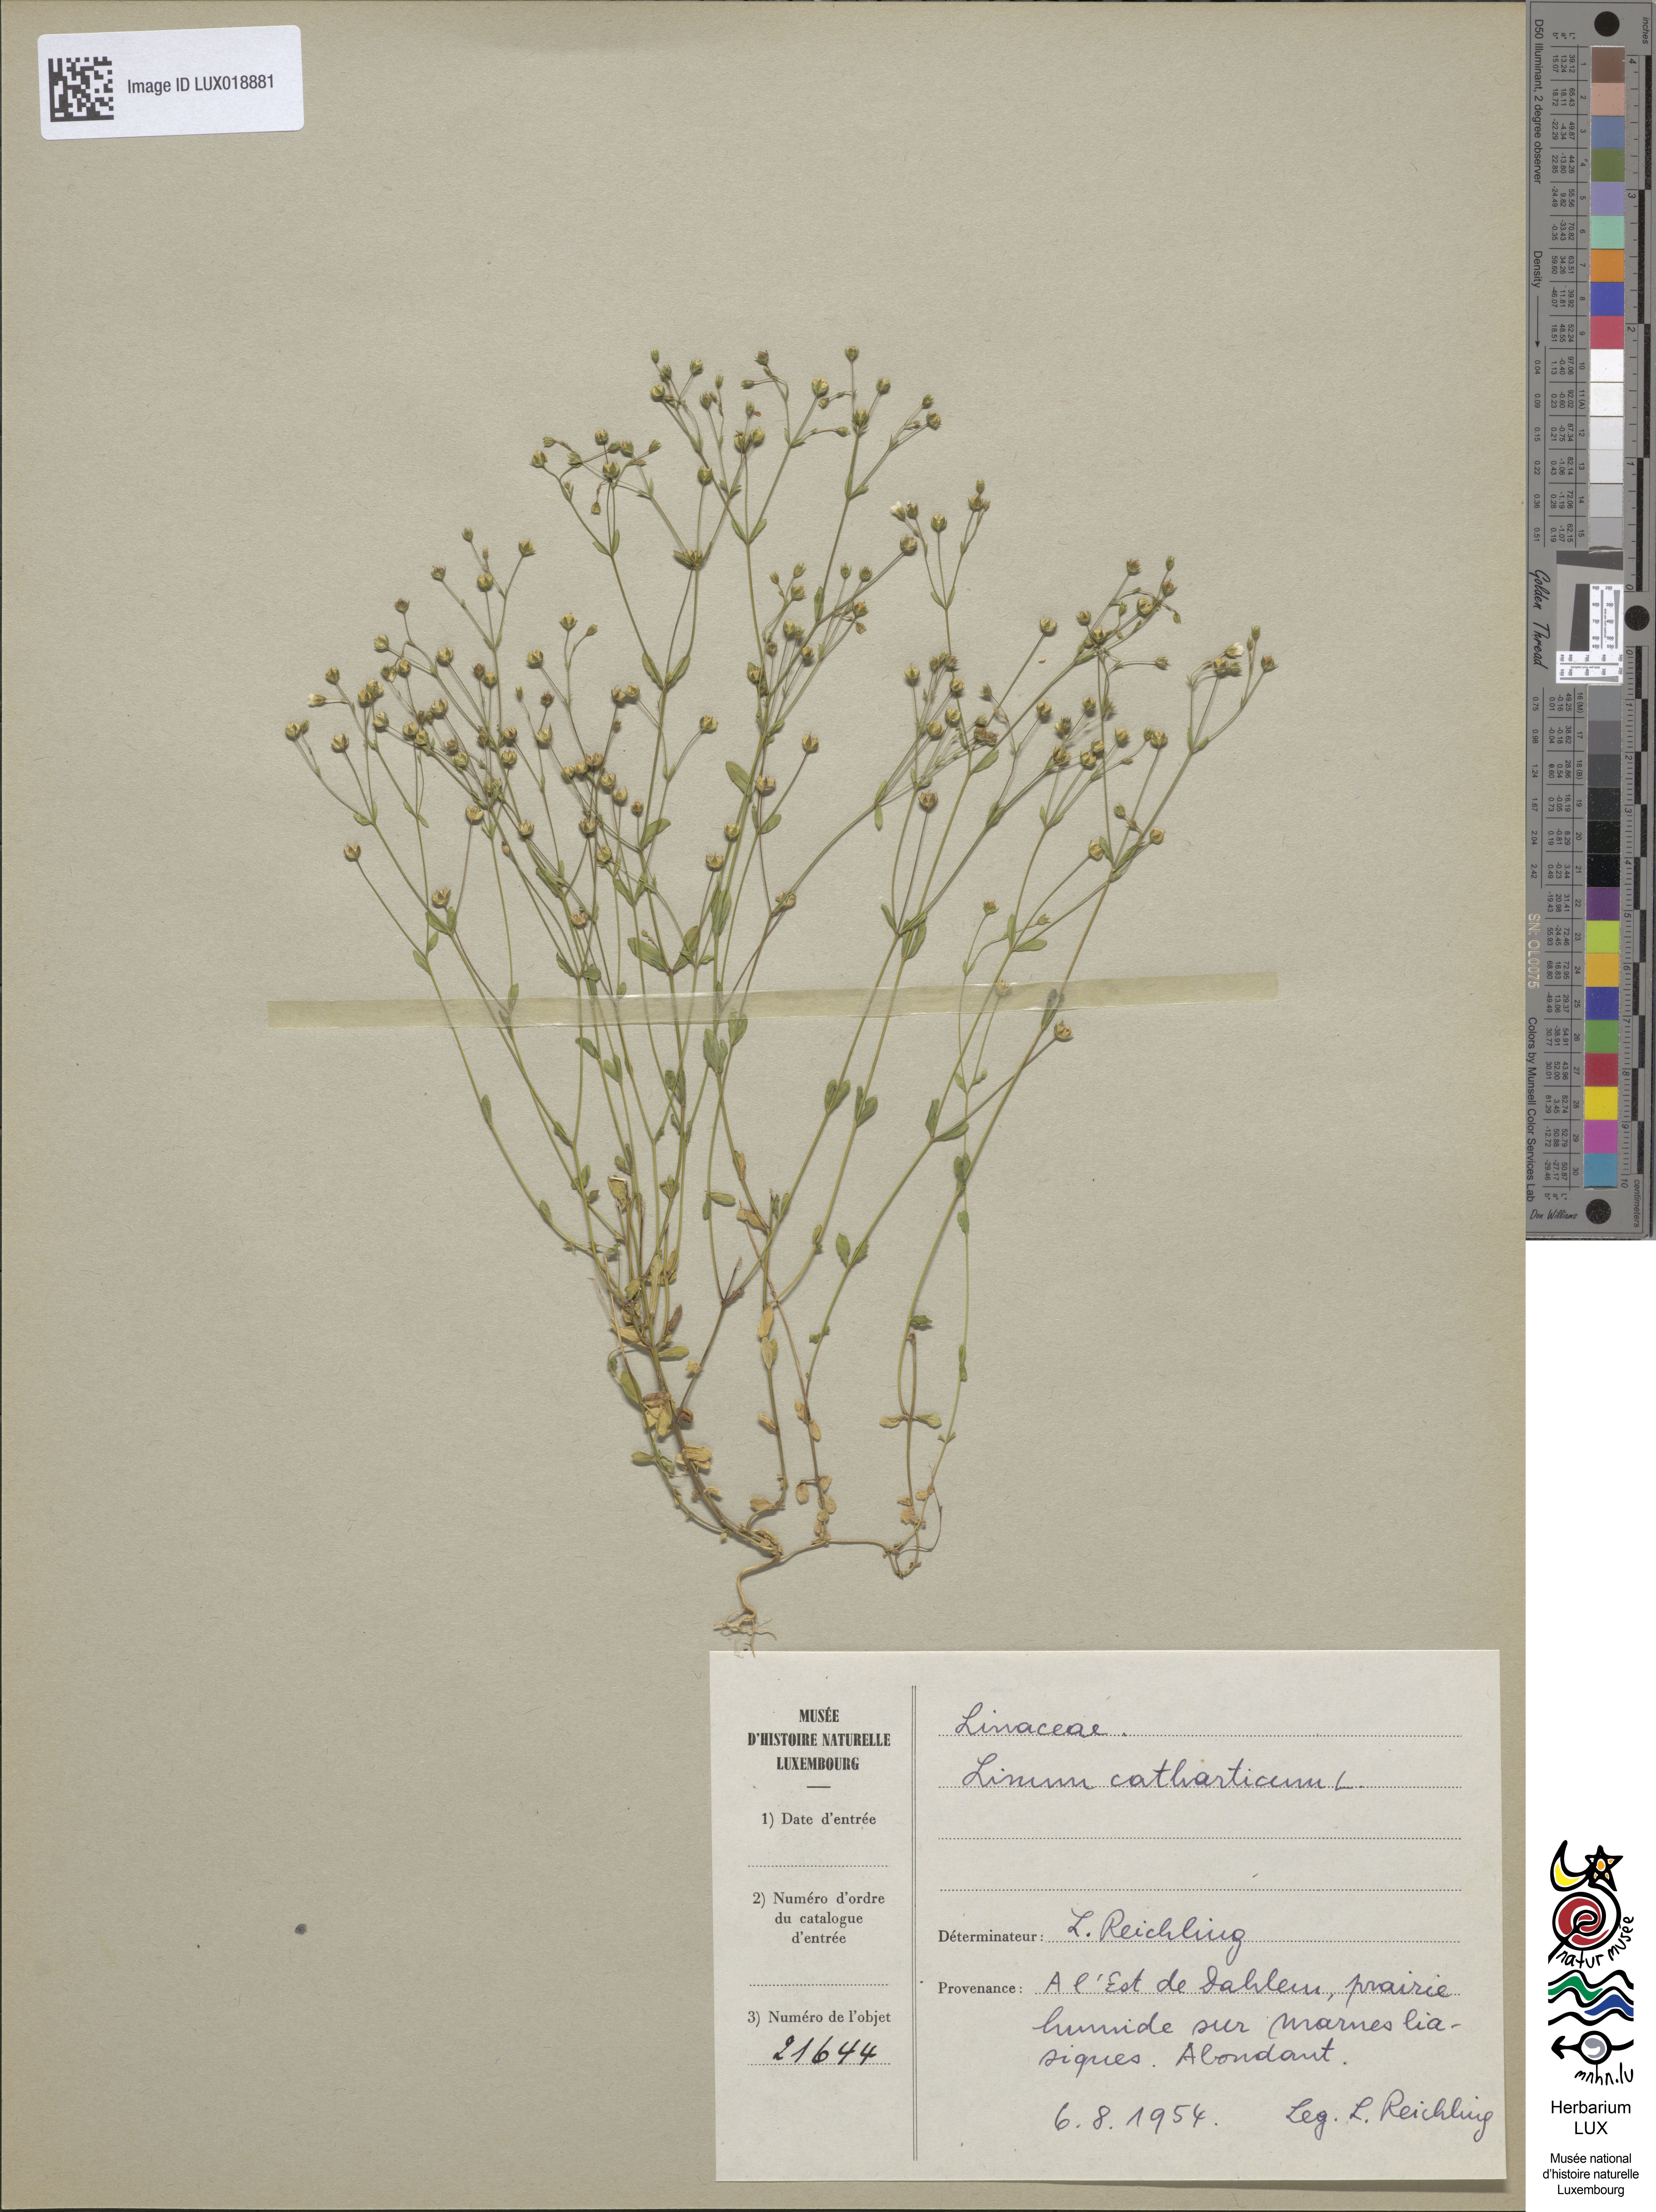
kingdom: Plantae
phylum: Tracheophyta
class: Magnoliopsida
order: Malpighiales
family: Linaceae
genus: Linum
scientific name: Linum catharticum
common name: Fairy flax
